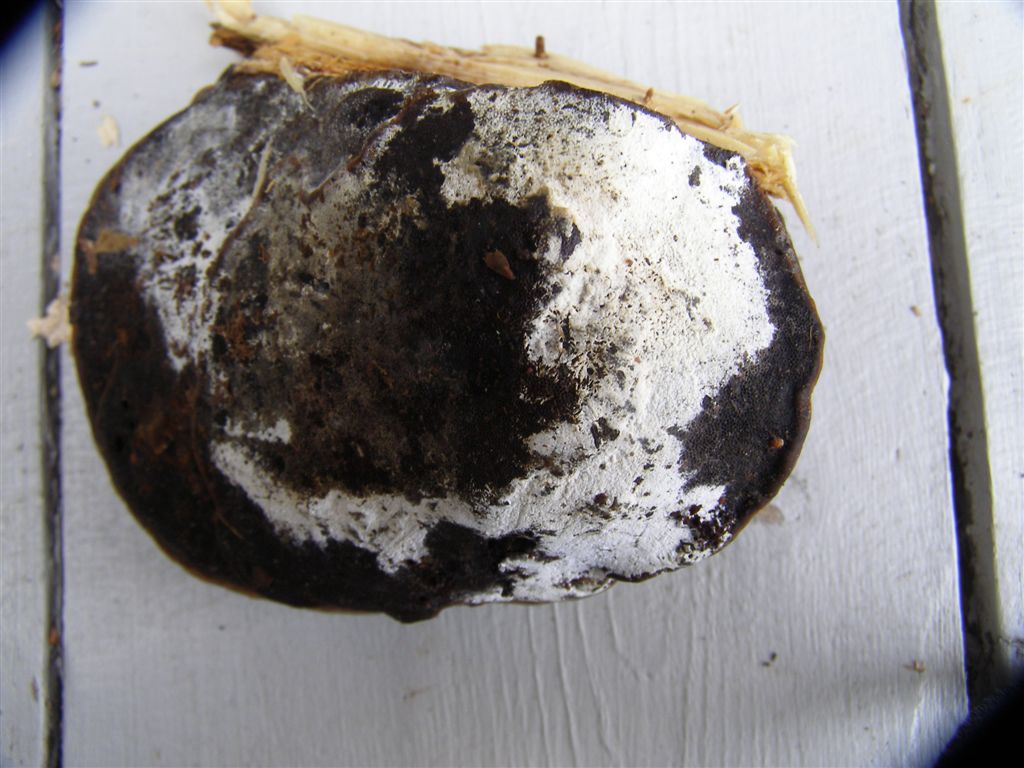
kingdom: Fungi
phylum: Basidiomycota
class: Agaricomycetes
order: Cantharellales
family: Botryobasidiaceae
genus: Botryobasidium
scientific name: Botryobasidium laeve
